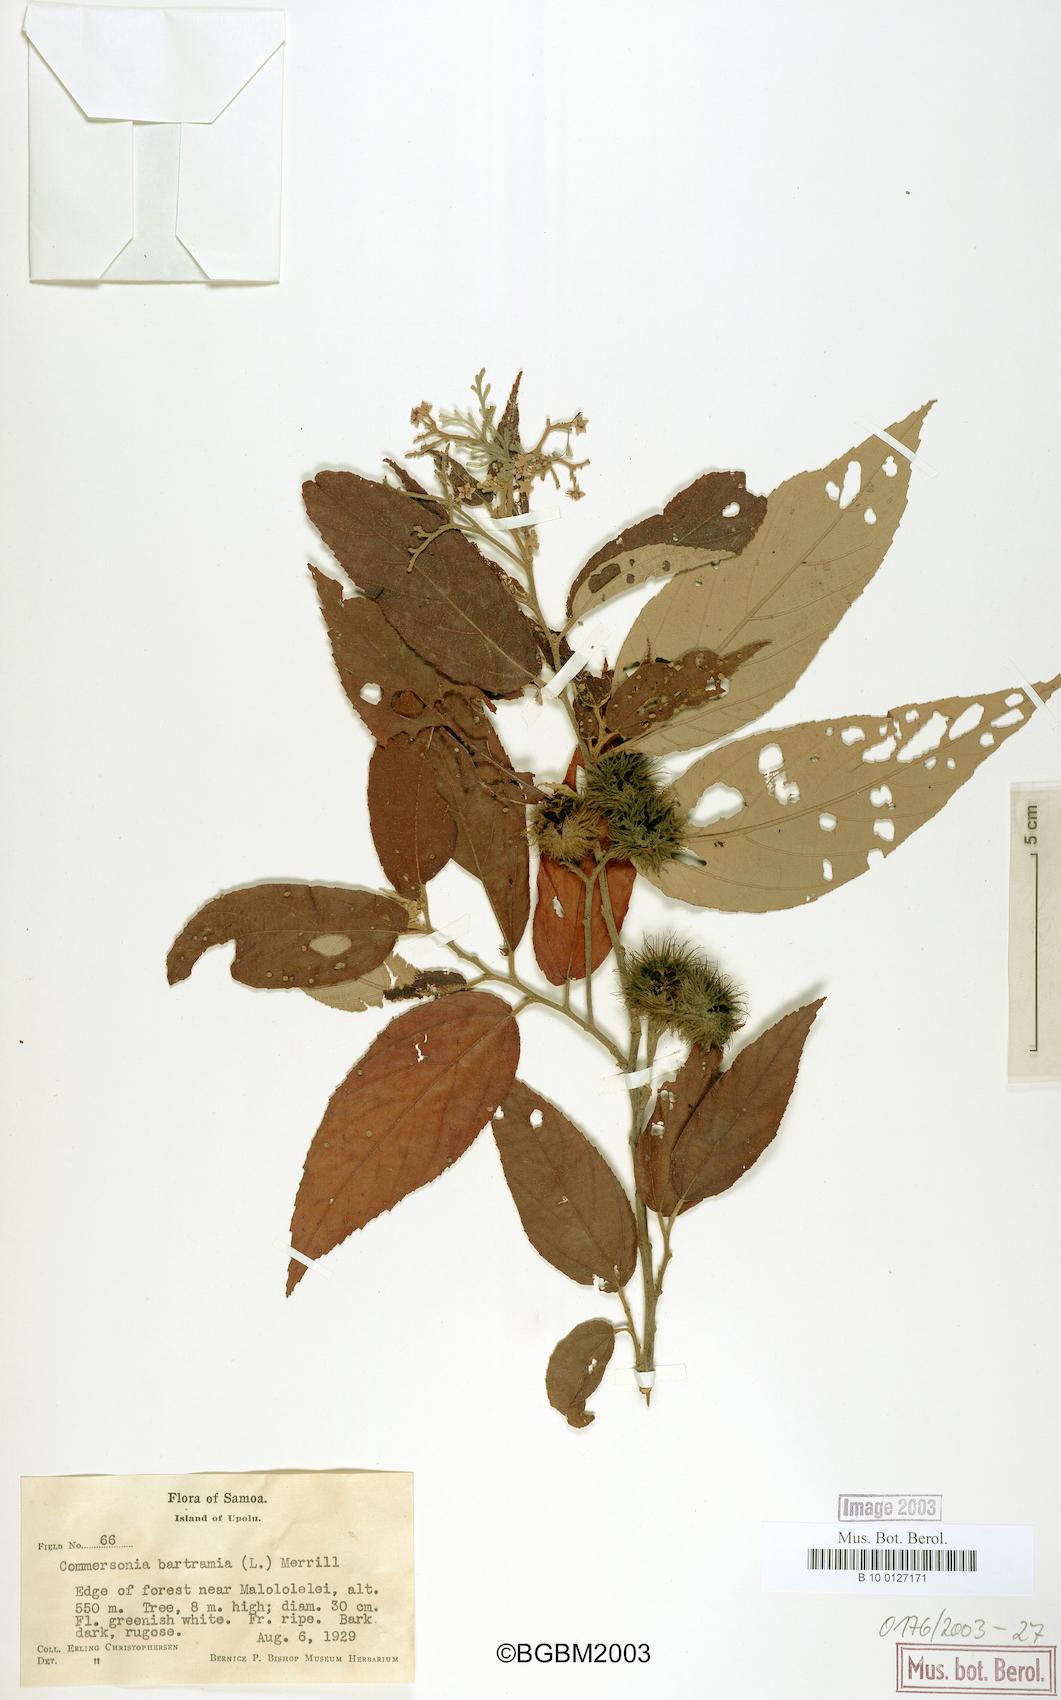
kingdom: Plantae
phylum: Tracheophyta
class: Magnoliopsida
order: Malvales
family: Malvaceae
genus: Commersonia
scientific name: Commersonia bartramia
